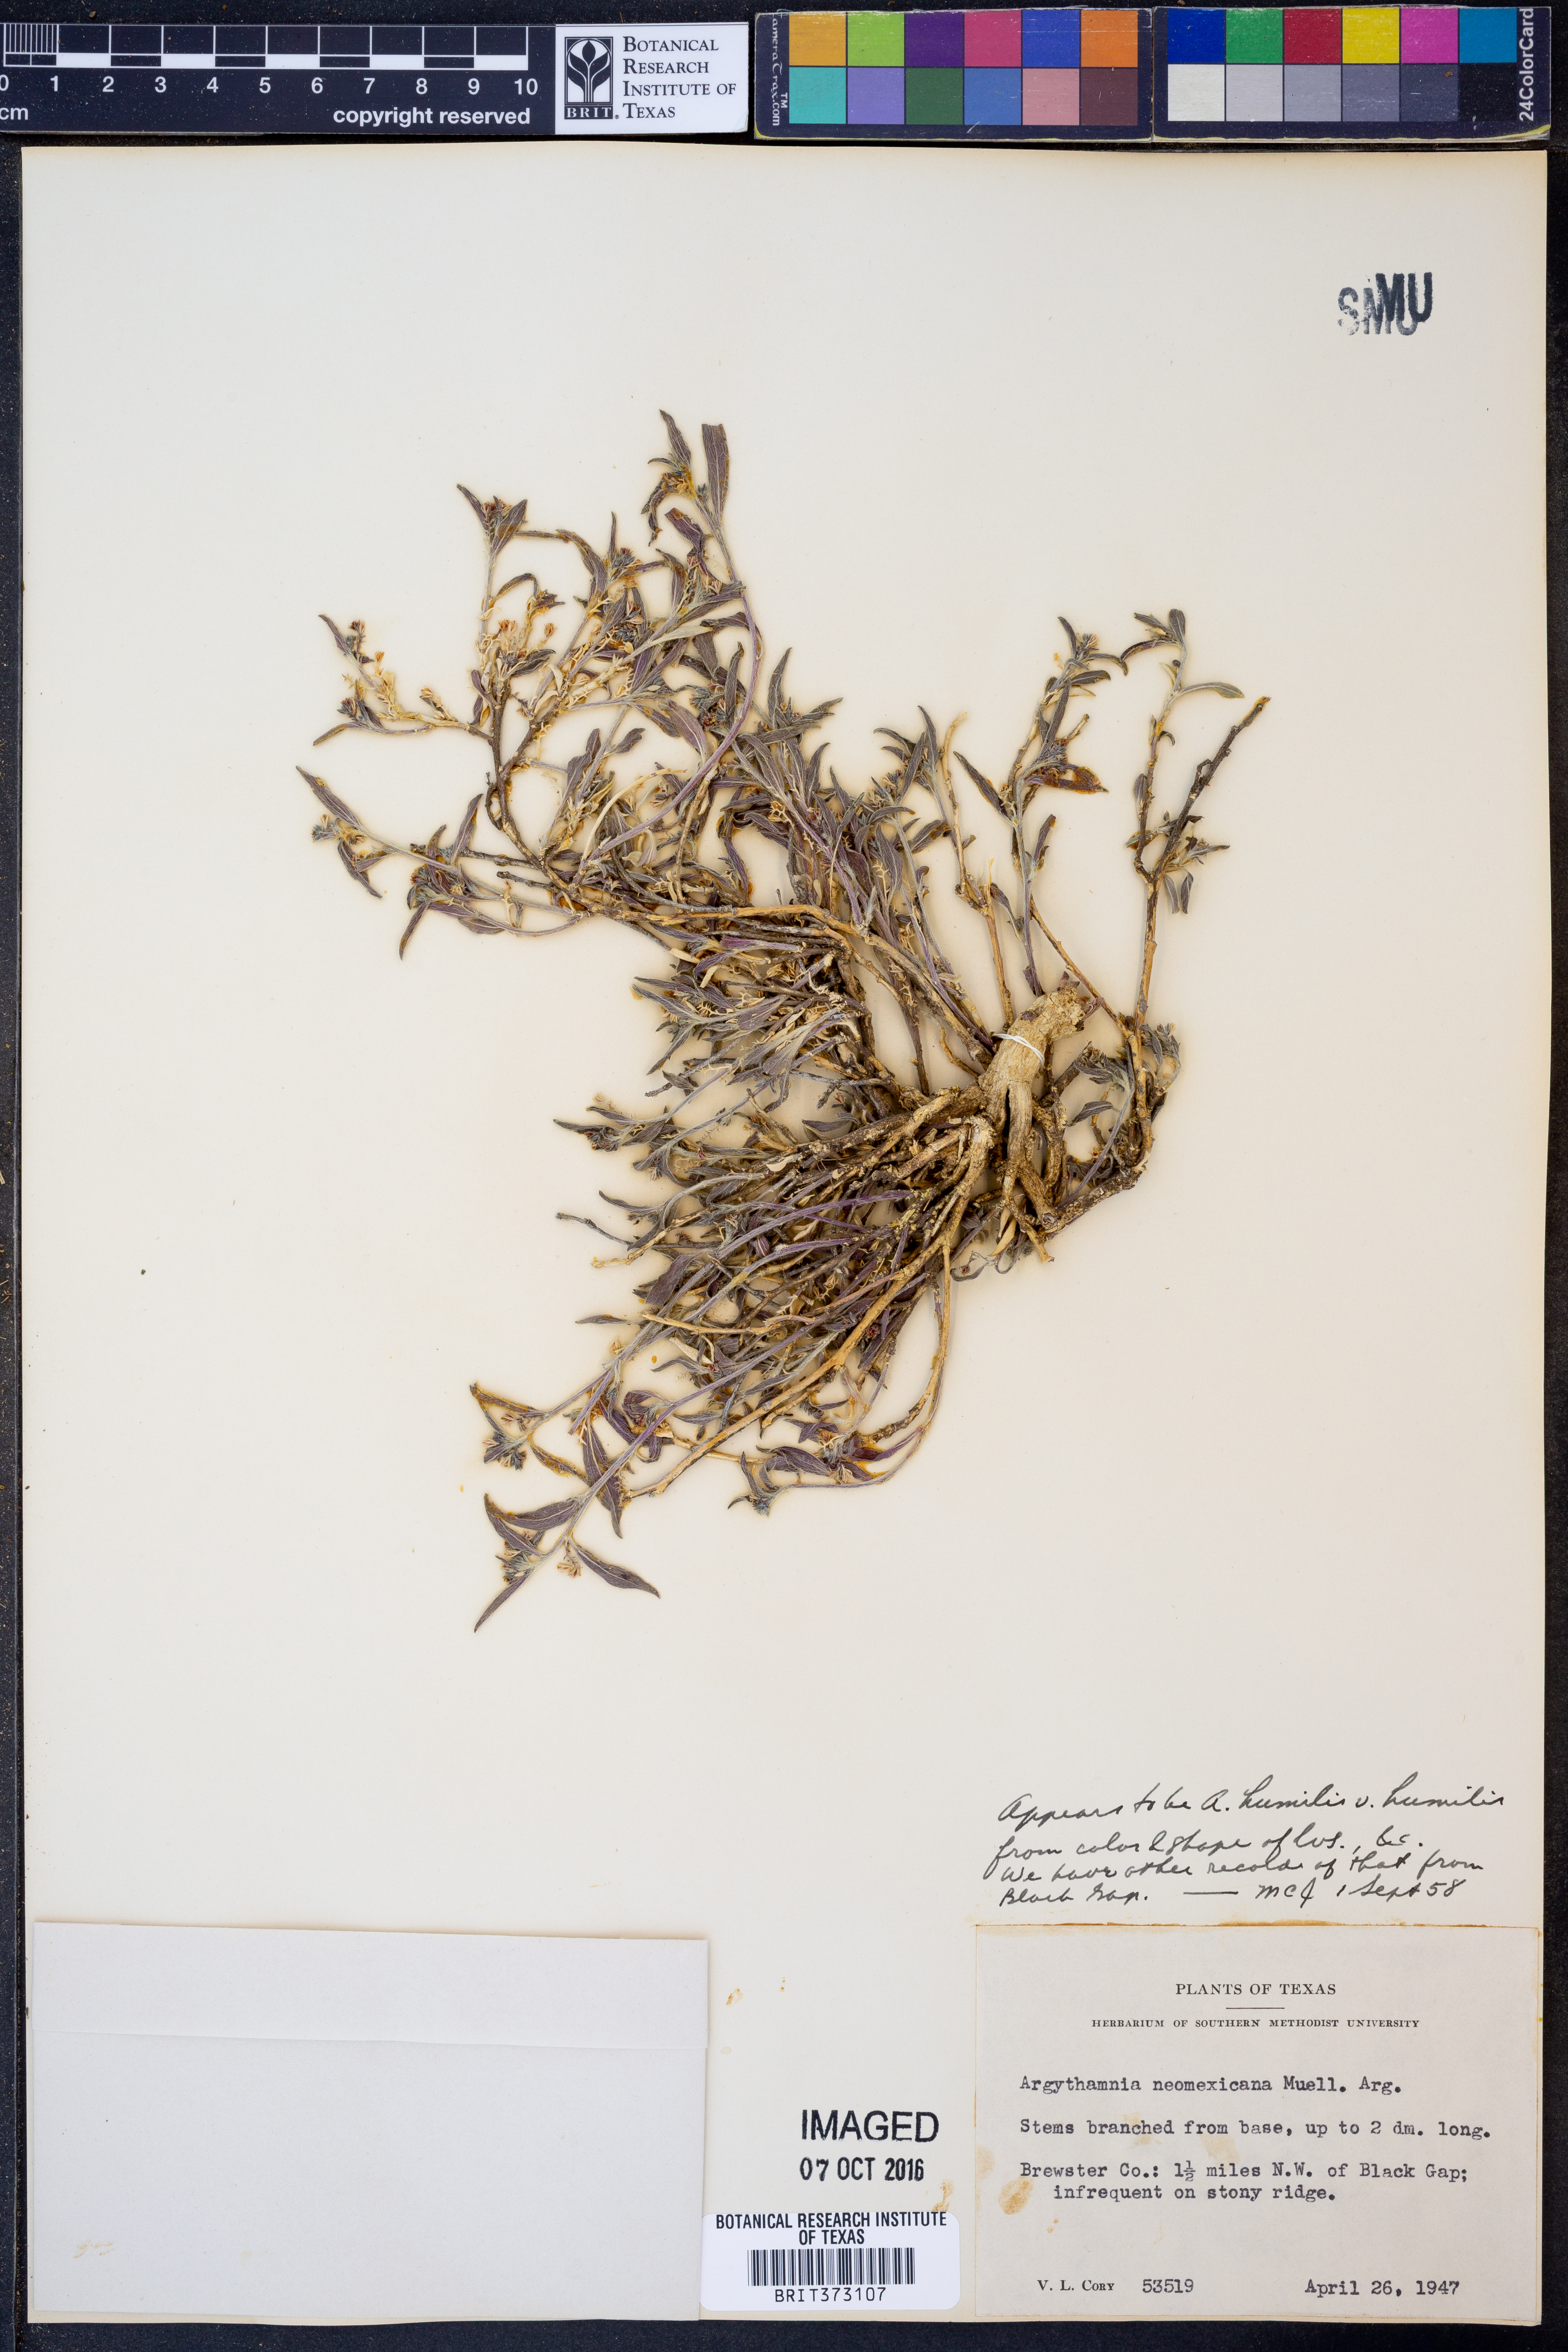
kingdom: Plantae
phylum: Tracheophyta
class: Magnoliopsida
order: Malpighiales
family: Euphorbiaceae
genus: Ditaxis
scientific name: Ditaxis humilis
